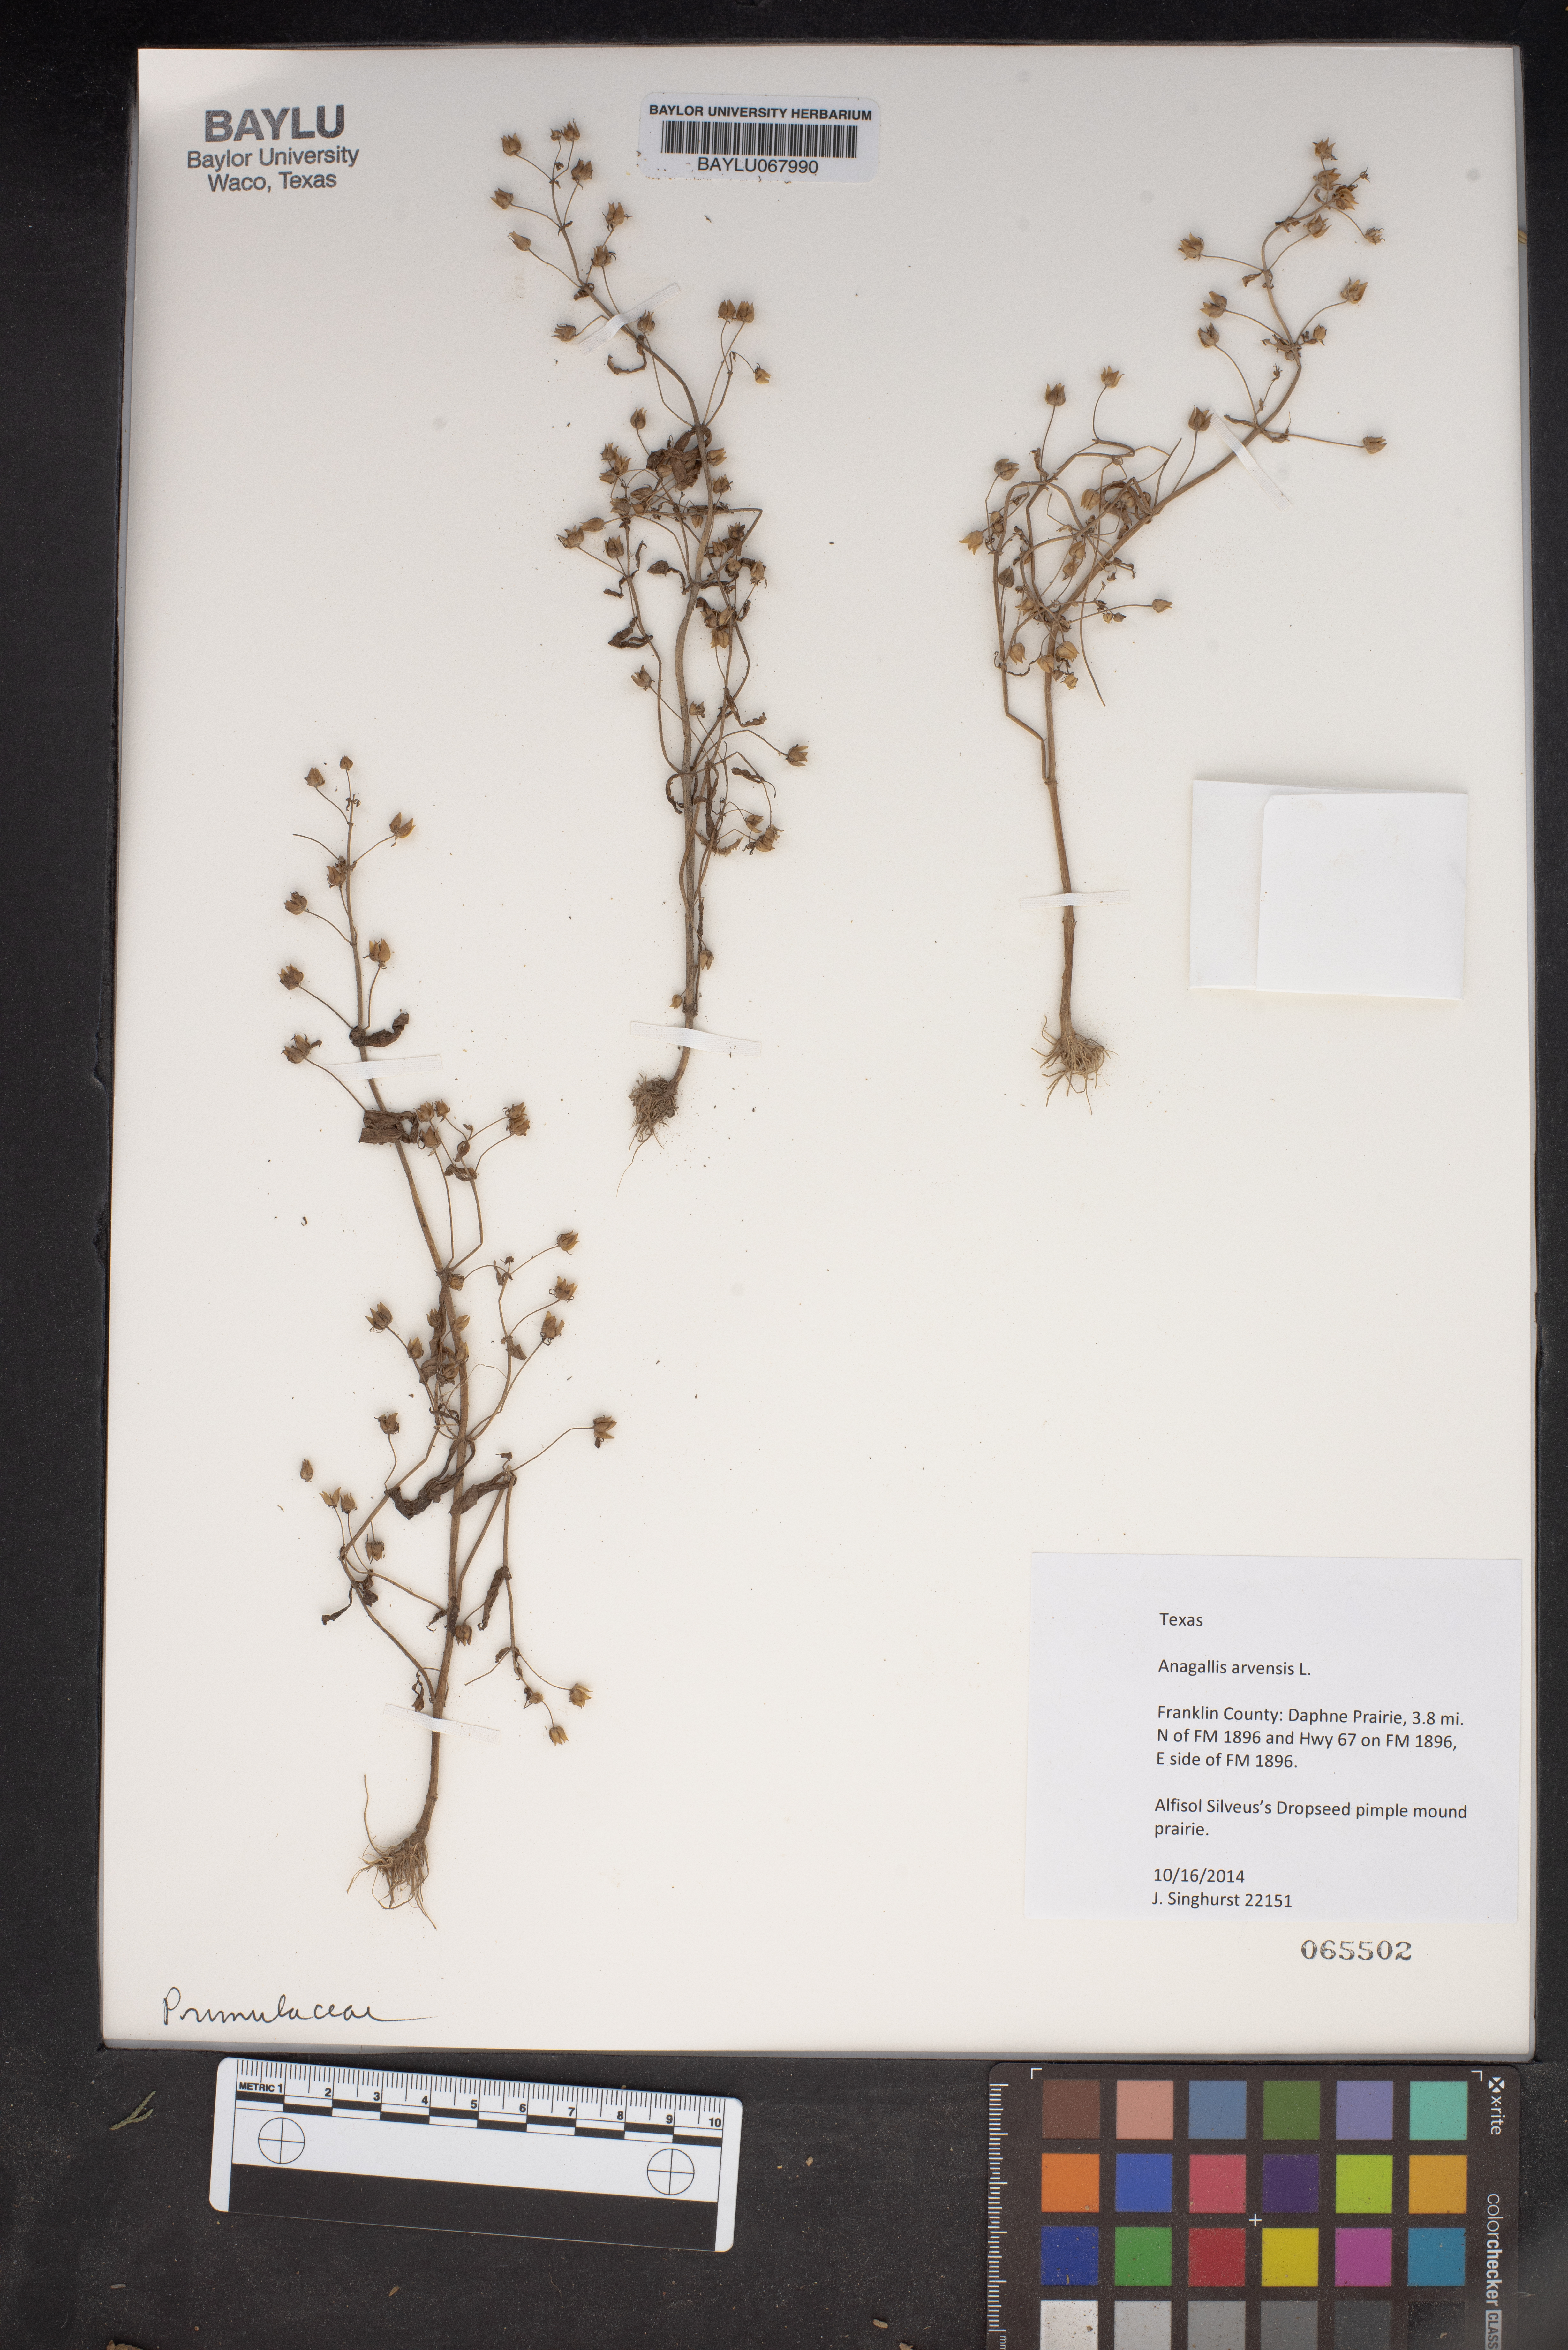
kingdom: Plantae
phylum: Tracheophyta
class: Magnoliopsida
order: Ericales
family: Primulaceae
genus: Lysimachia
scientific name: Lysimachia arvensis
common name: Scarlet pimpernel
